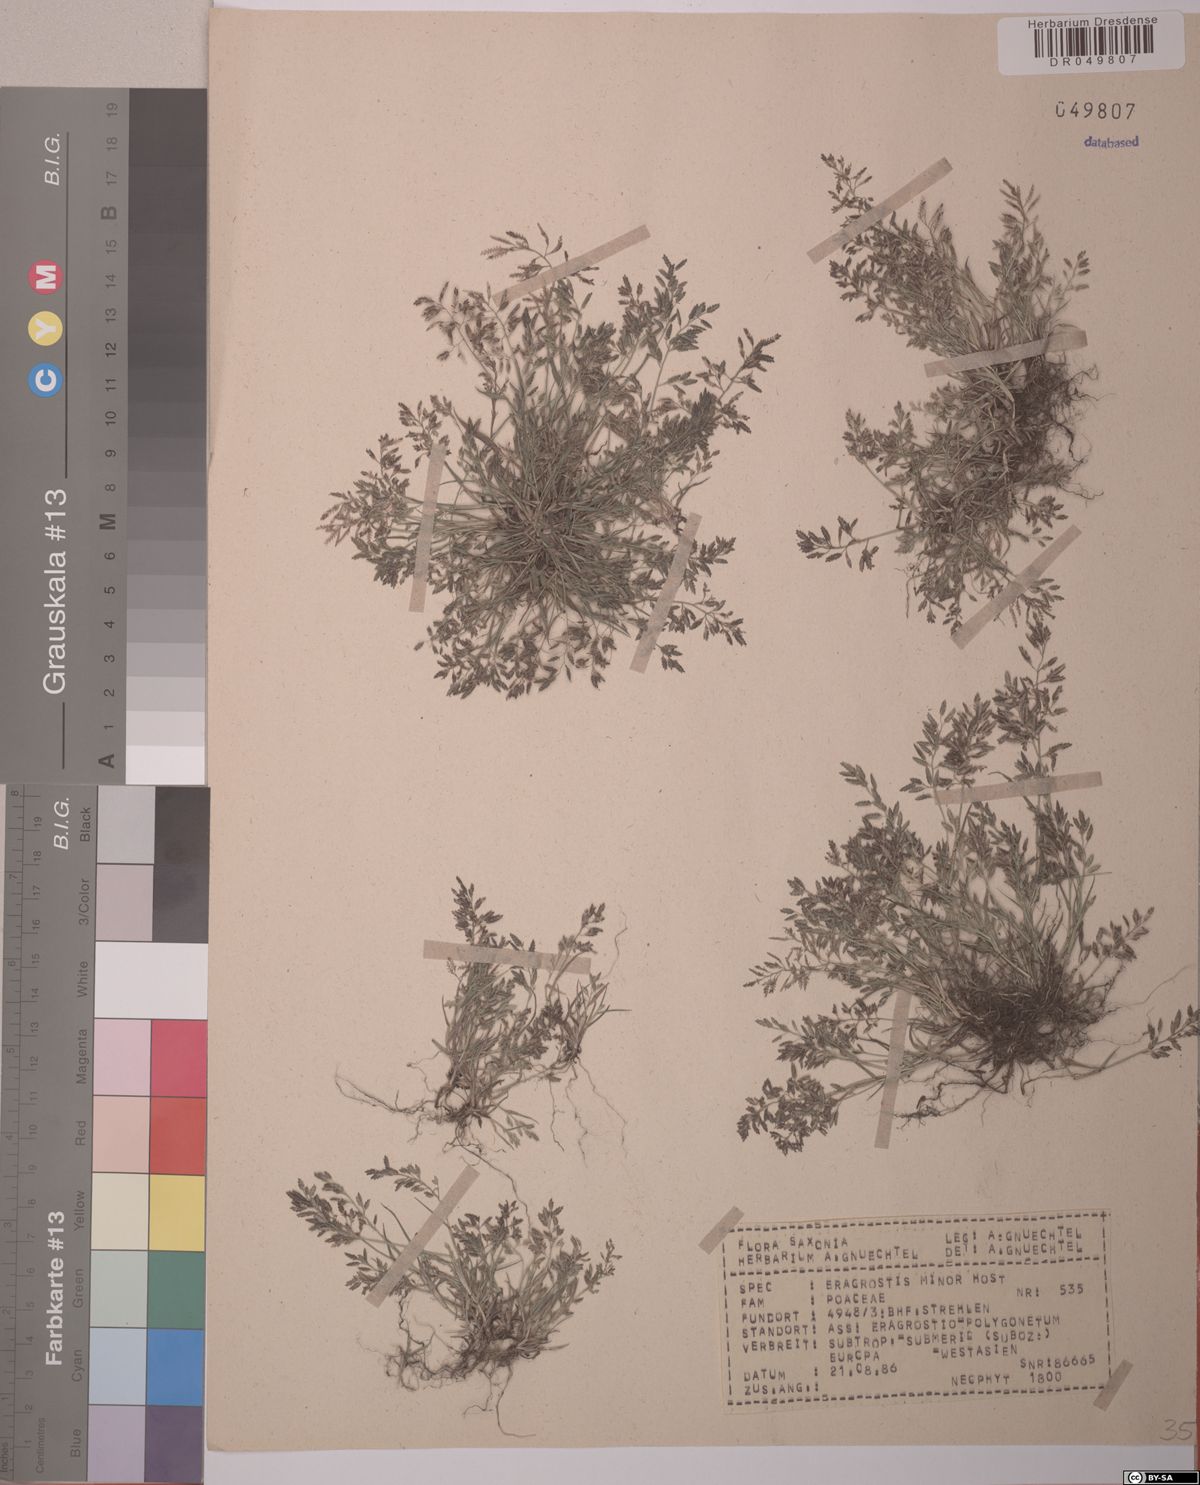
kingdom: Plantae
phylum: Tracheophyta
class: Liliopsida
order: Poales
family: Poaceae
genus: Eragrostis
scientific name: Eragrostis minor
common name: Small love-grass
